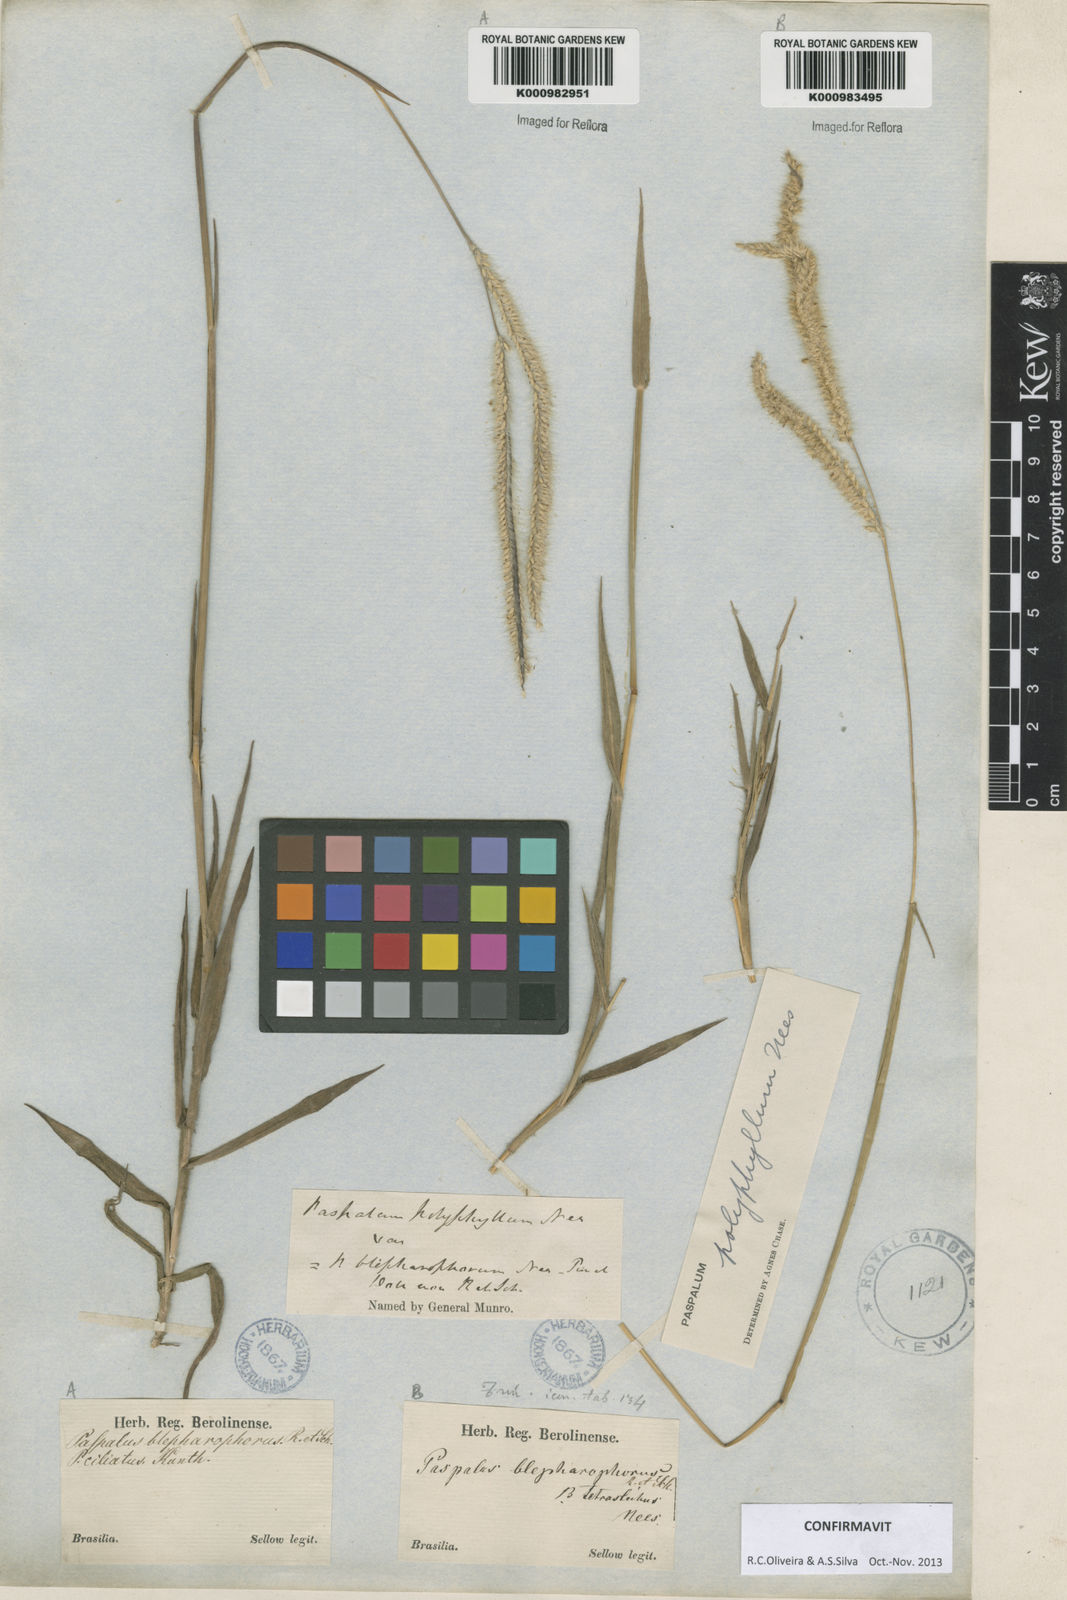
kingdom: Plantae
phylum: Tracheophyta
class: Liliopsida
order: Poales
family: Poaceae
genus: Paspalum
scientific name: Paspalum
